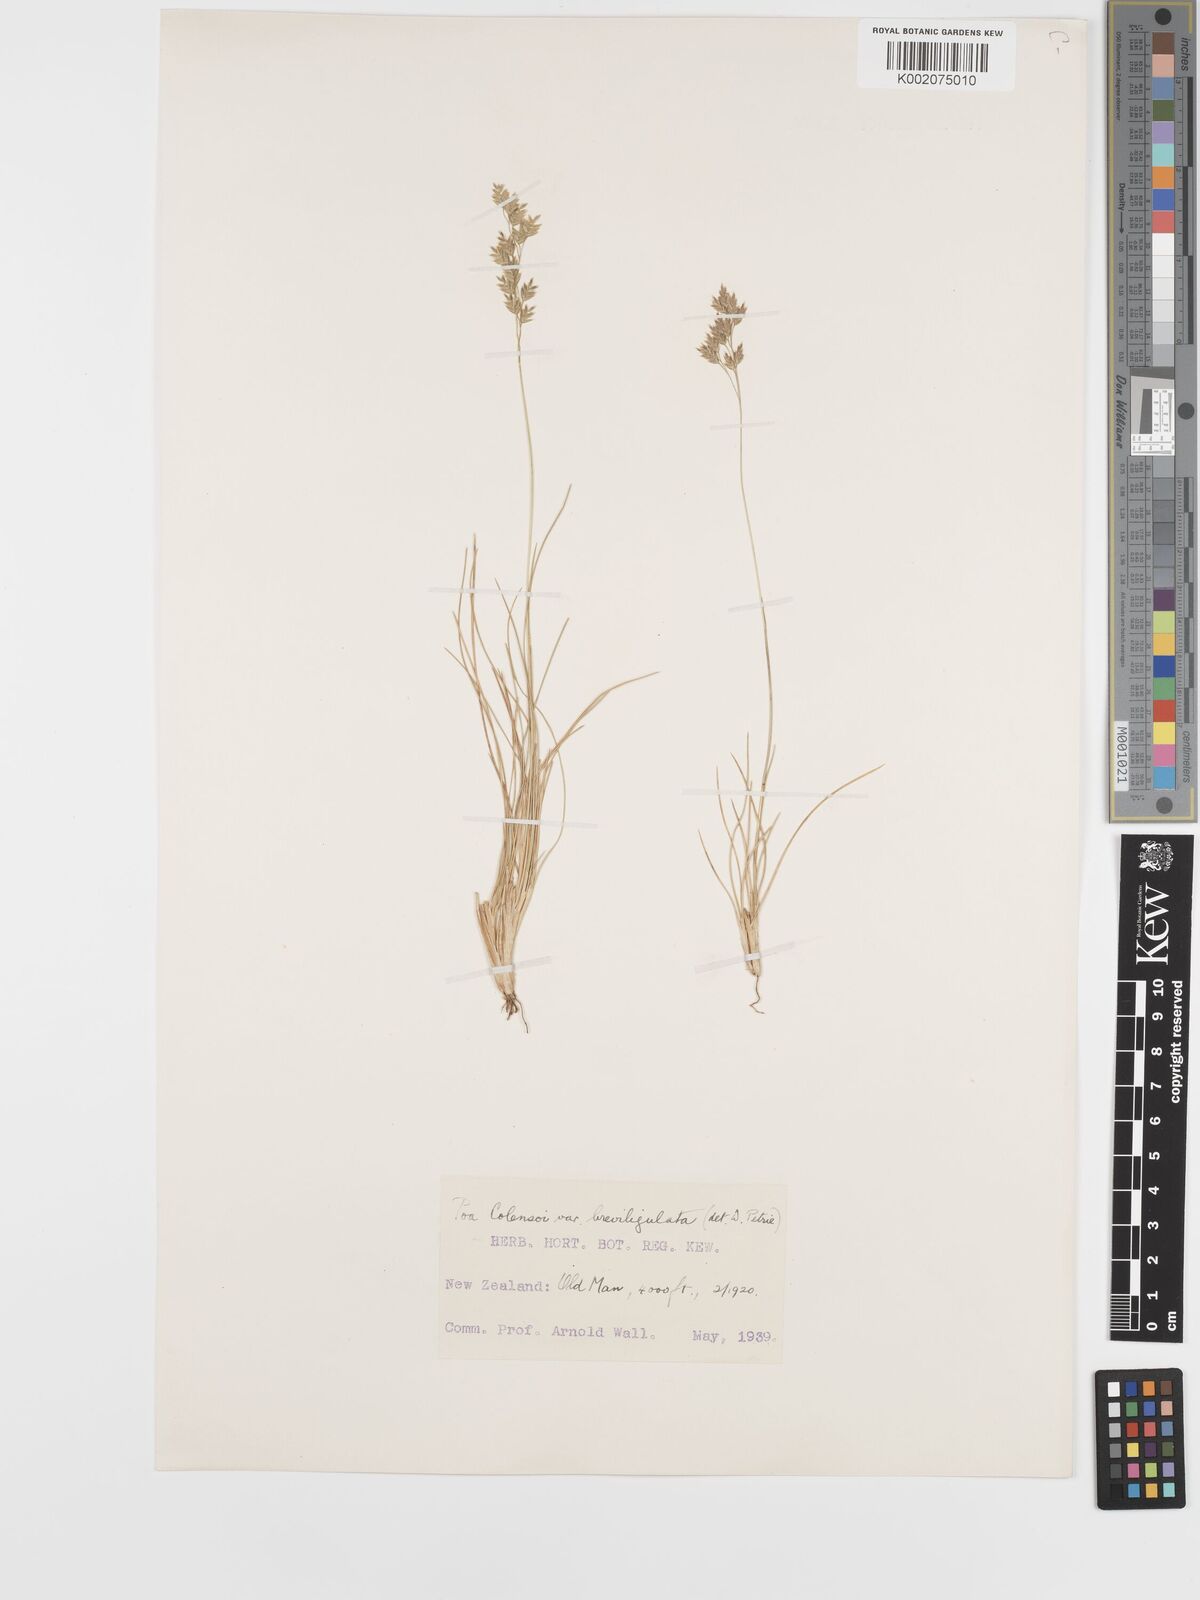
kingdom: Plantae
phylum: Tracheophyta
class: Liliopsida
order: Poales
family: Poaceae
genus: Poa
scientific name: Poa colensoi
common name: Blue tussock
